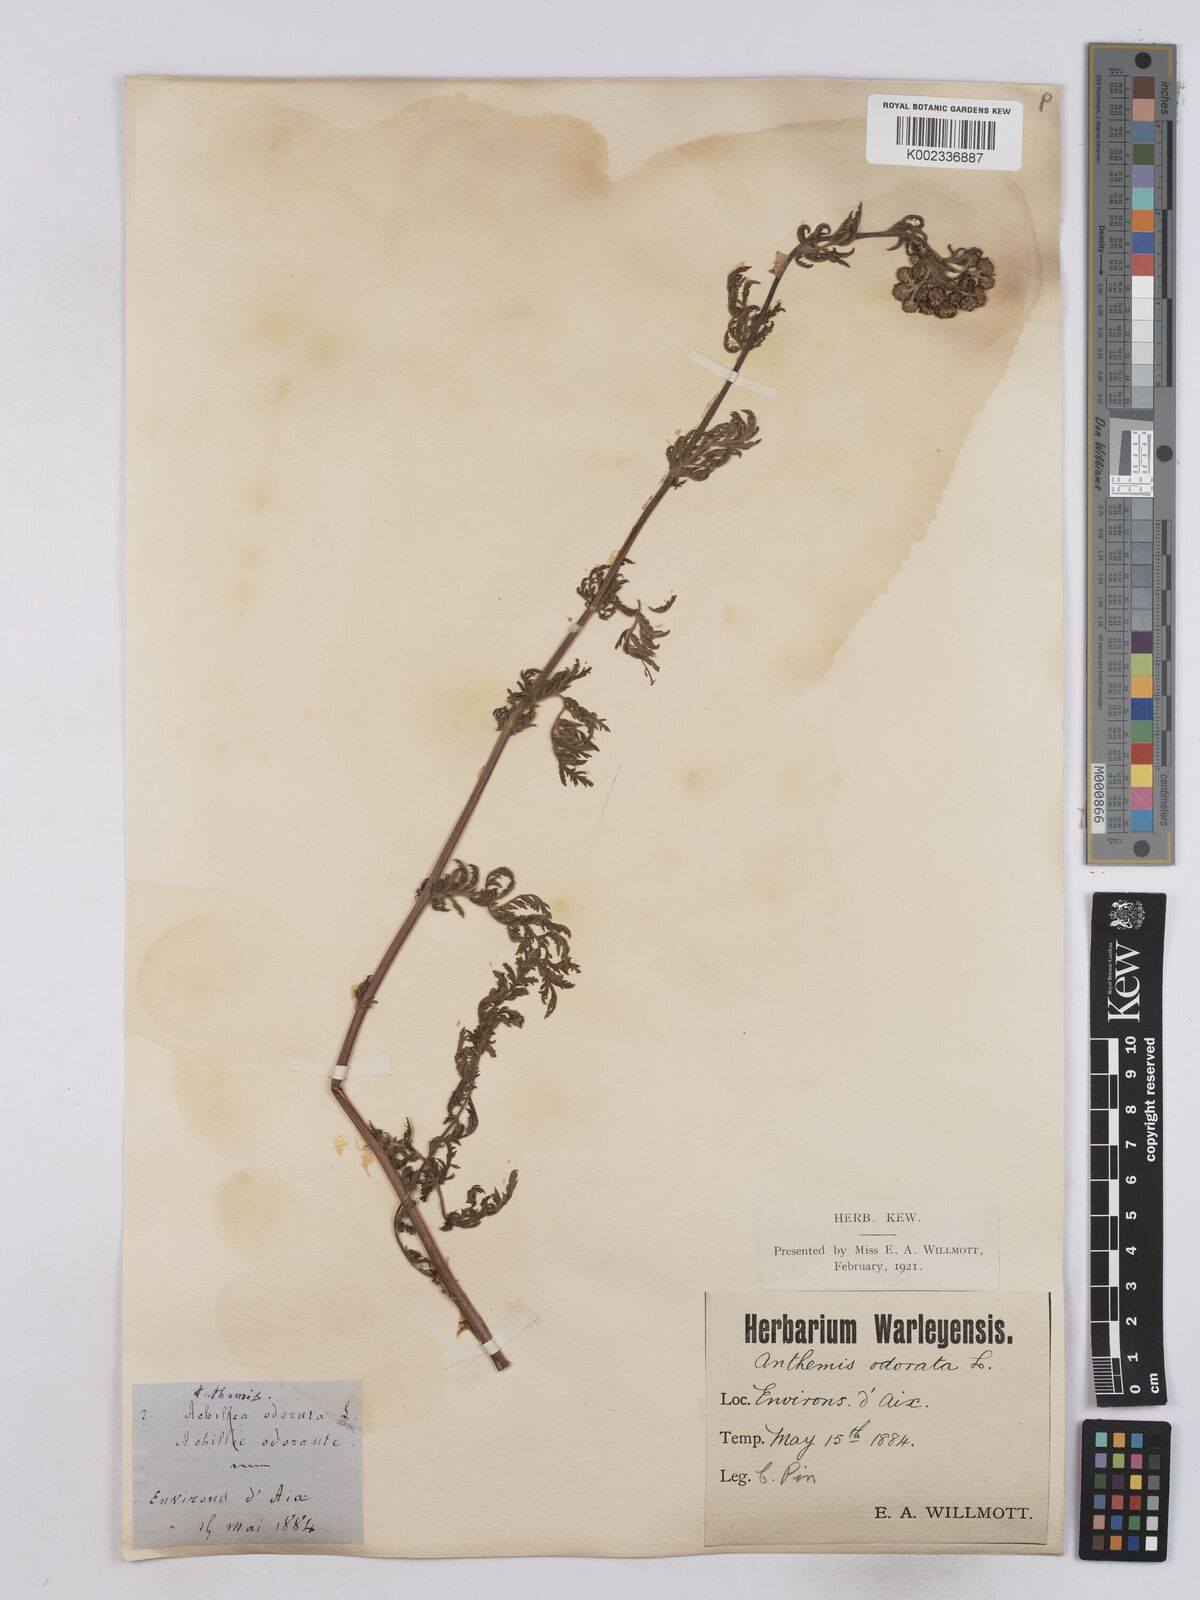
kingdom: Plantae
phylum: Tracheophyta
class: Magnoliopsida
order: Asterales
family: Asteraceae
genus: Achillea
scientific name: Achillea odorata
